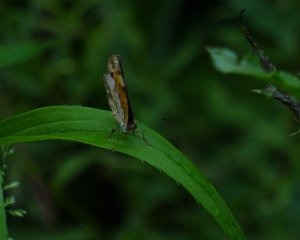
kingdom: Animalia
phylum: Arthropoda
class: Insecta
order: Lepidoptera
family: Nymphalidae
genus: Phyciodes
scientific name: Phyciodes tharos
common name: Pearl Crescent
